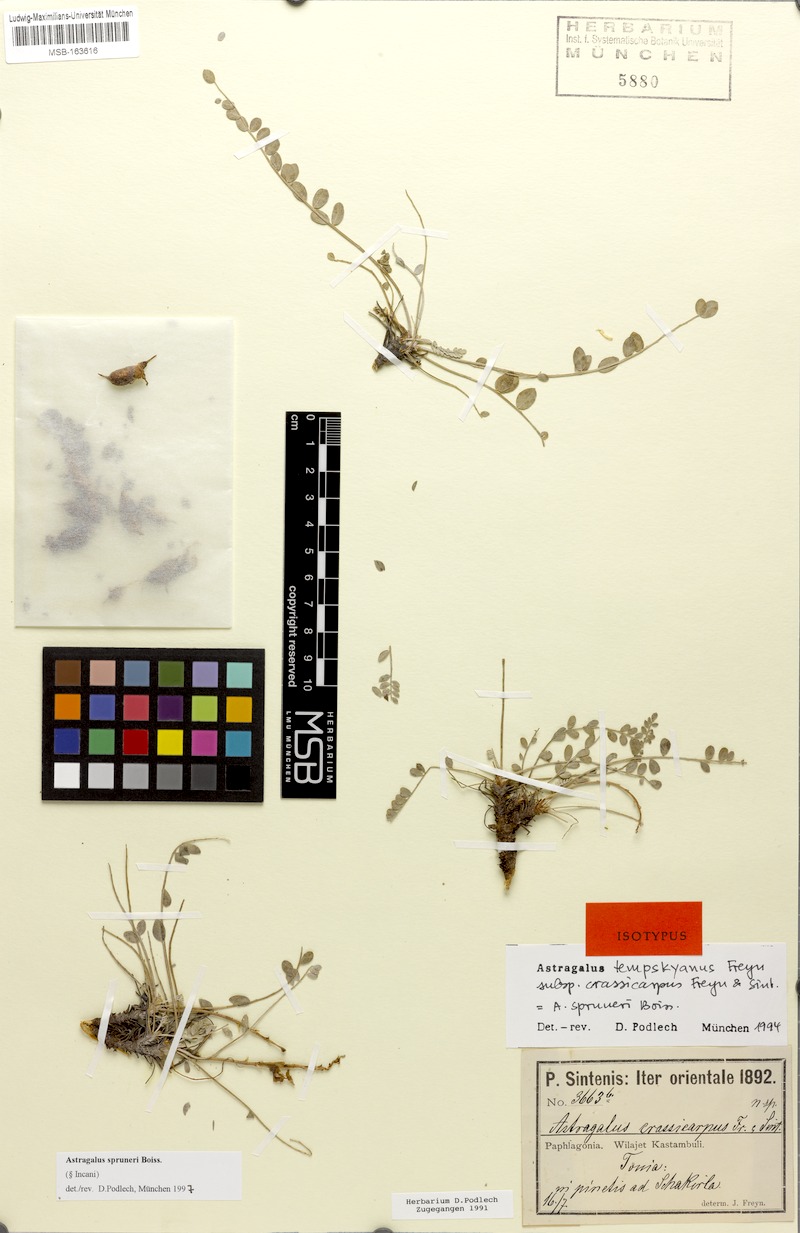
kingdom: Plantae
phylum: Tracheophyta
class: Magnoliopsida
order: Fabales
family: Fabaceae
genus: Astragalus
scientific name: Astragalus spruneri
